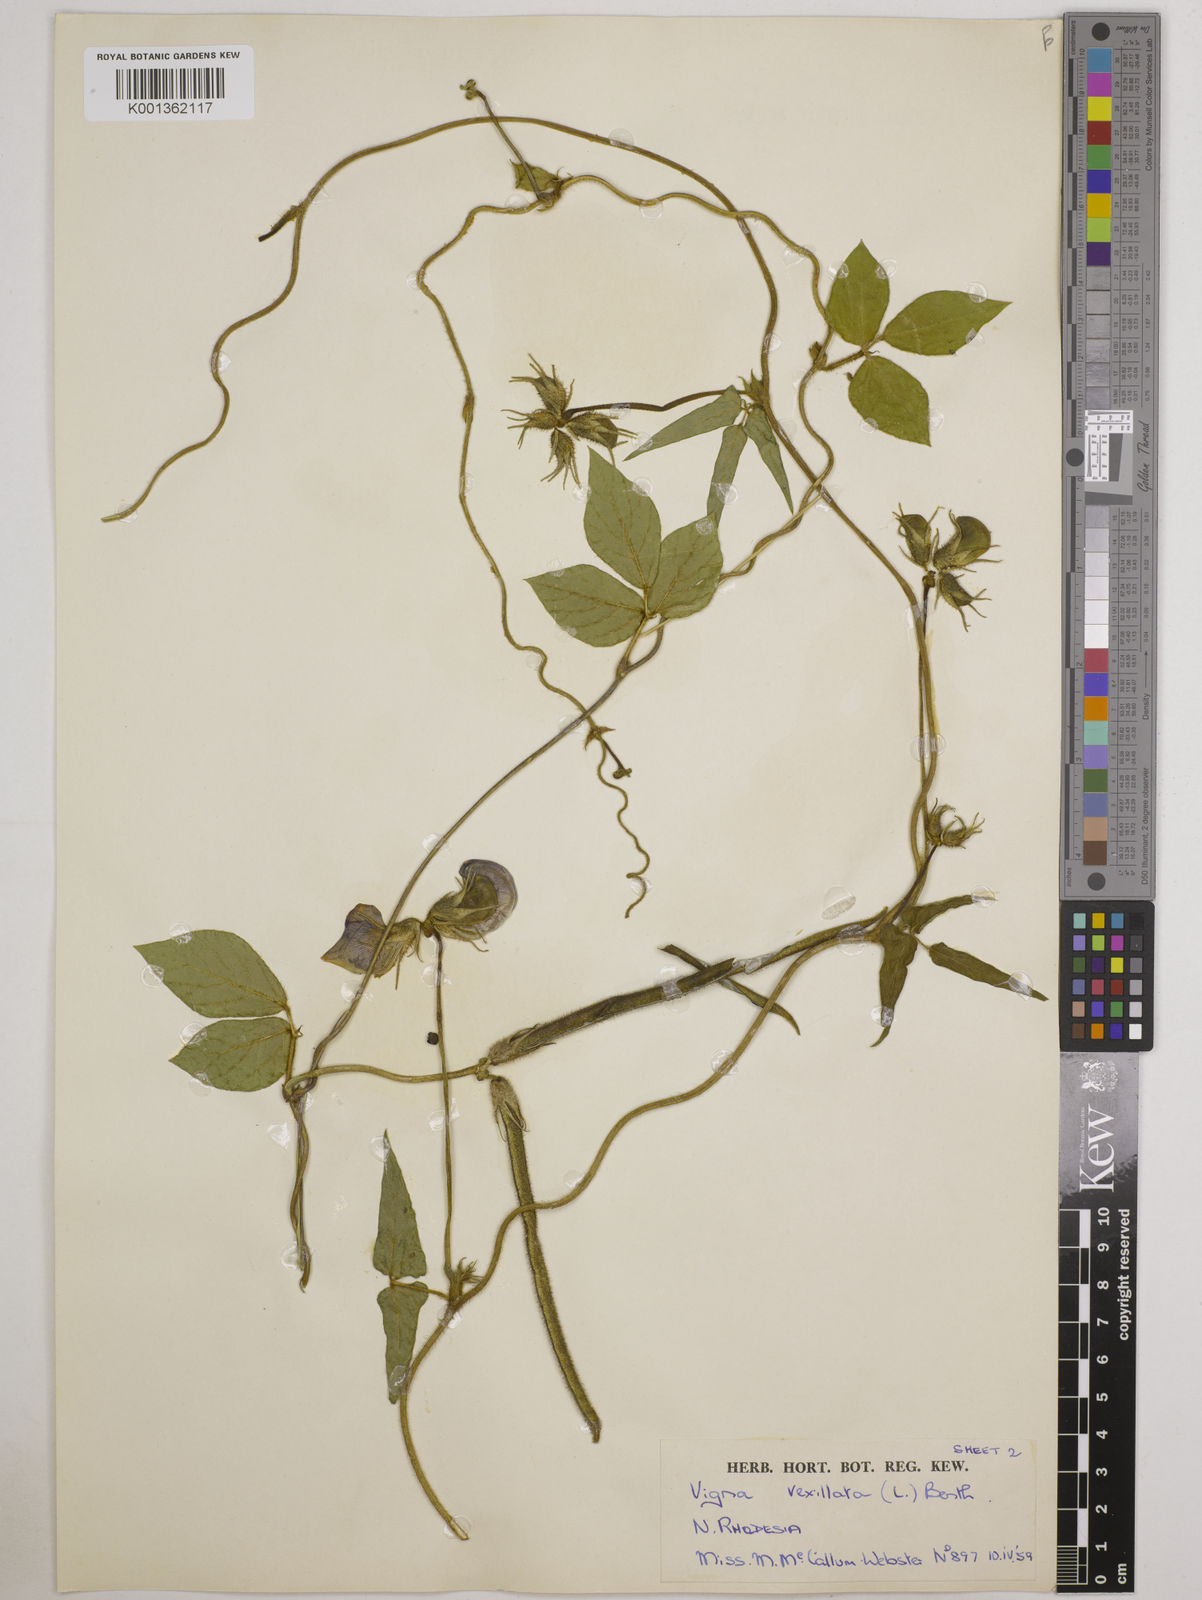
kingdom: Plantae
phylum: Tracheophyta
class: Magnoliopsida
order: Fabales
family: Fabaceae
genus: Vigna
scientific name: Vigna vexillata
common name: Zombi pea
